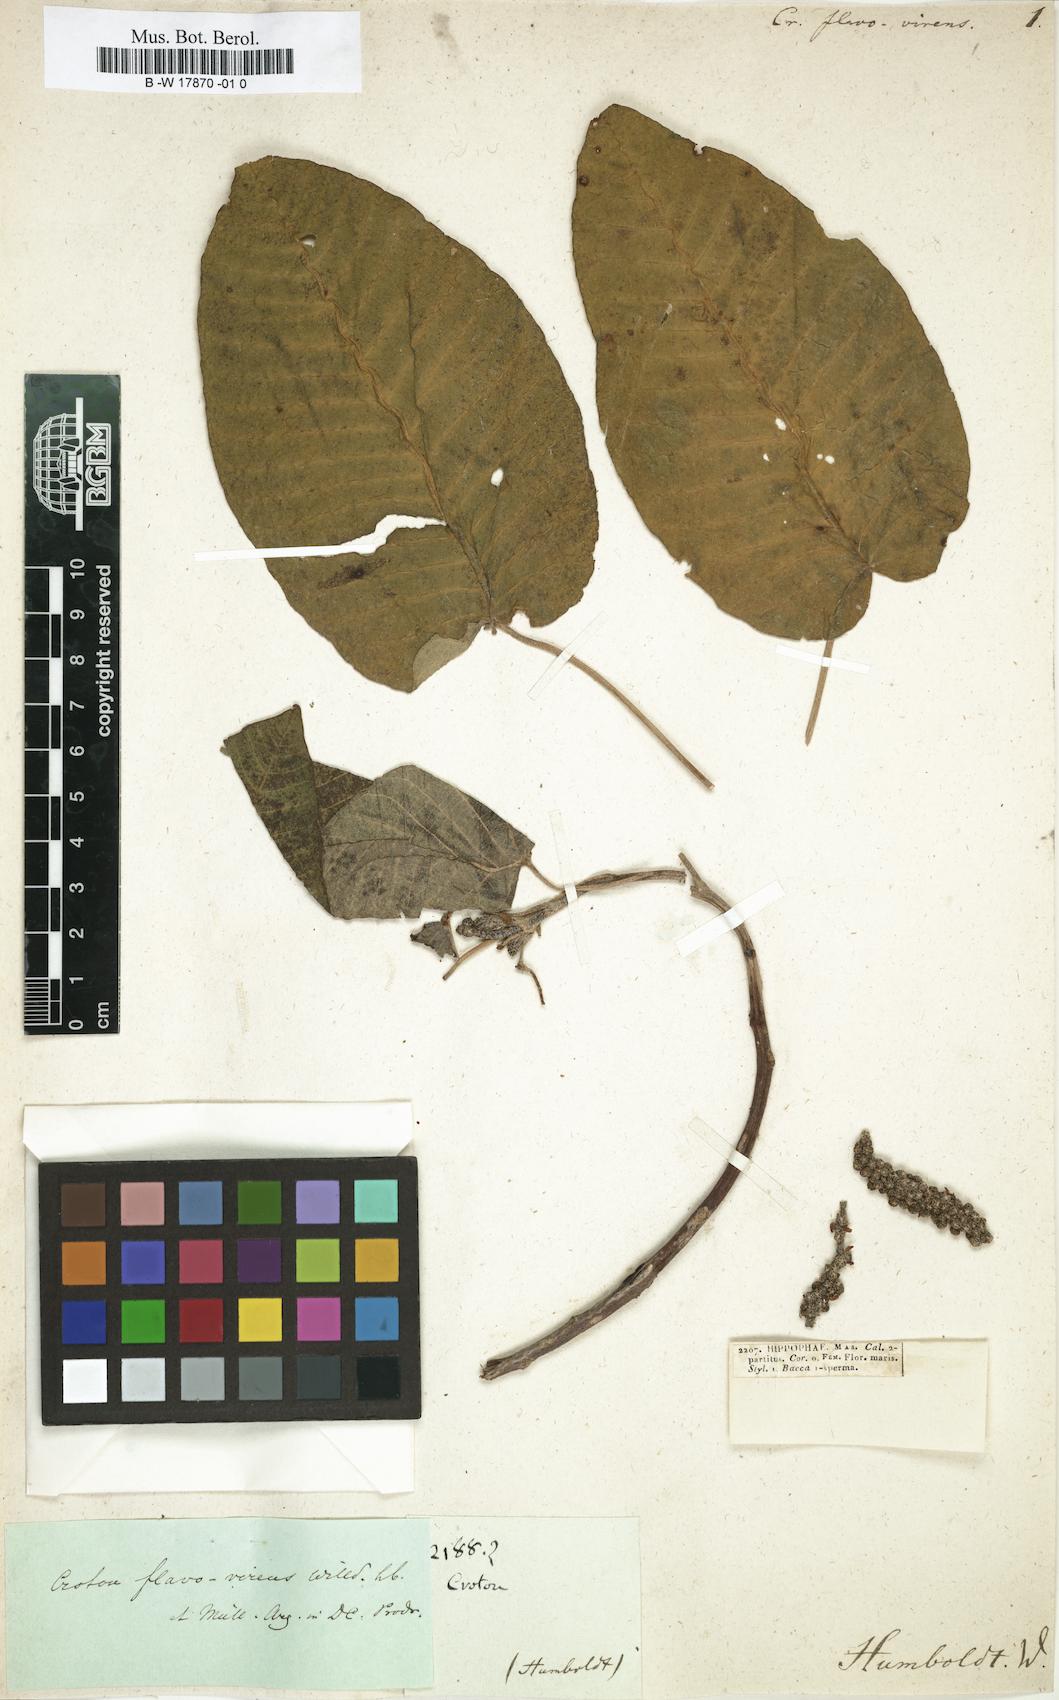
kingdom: Plantae
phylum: Tracheophyta
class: Magnoliopsida
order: Malpighiales
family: Euphorbiaceae
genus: Croton
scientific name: Croton flavovirens
